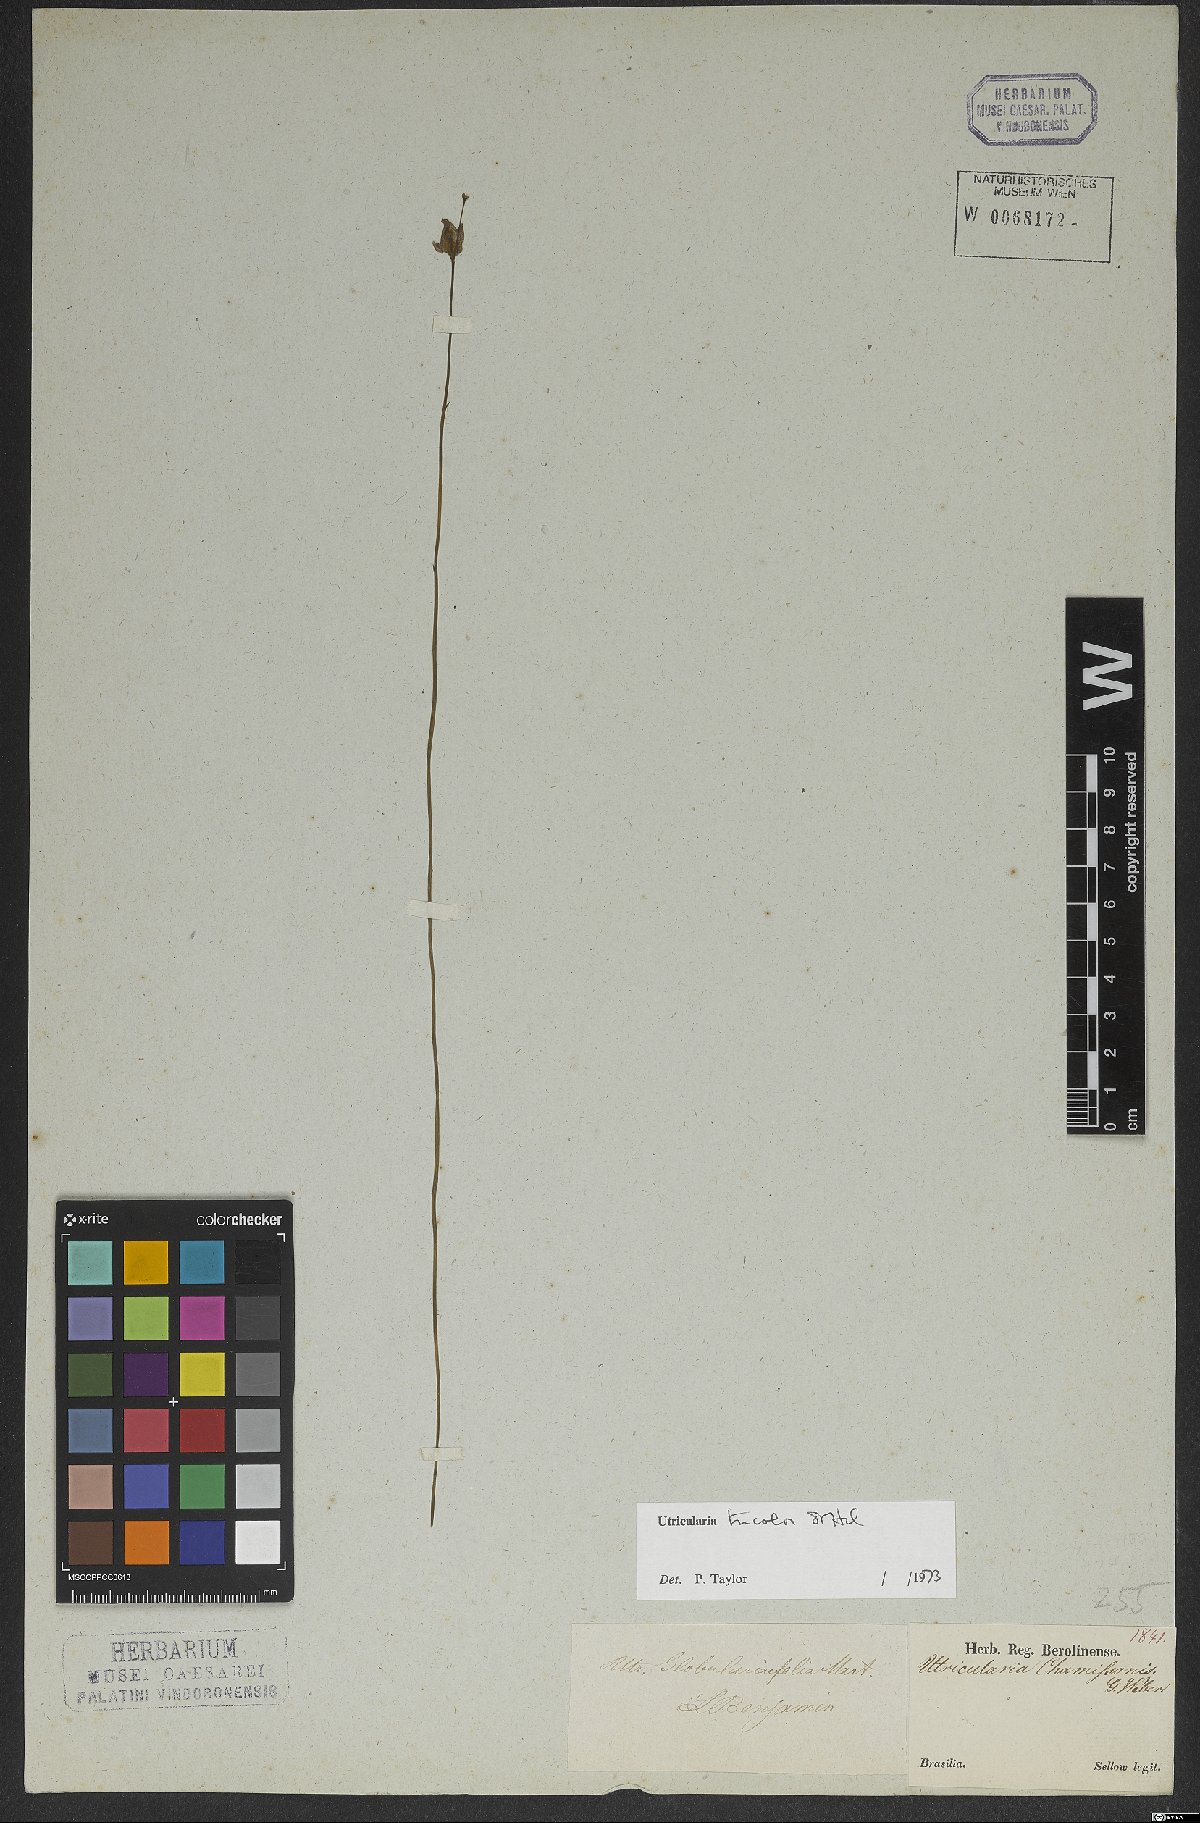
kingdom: Plantae
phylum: Tracheophyta
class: Magnoliopsida
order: Lamiales
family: Lentibulariaceae
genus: Utricularia
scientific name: Utricularia tricolor
